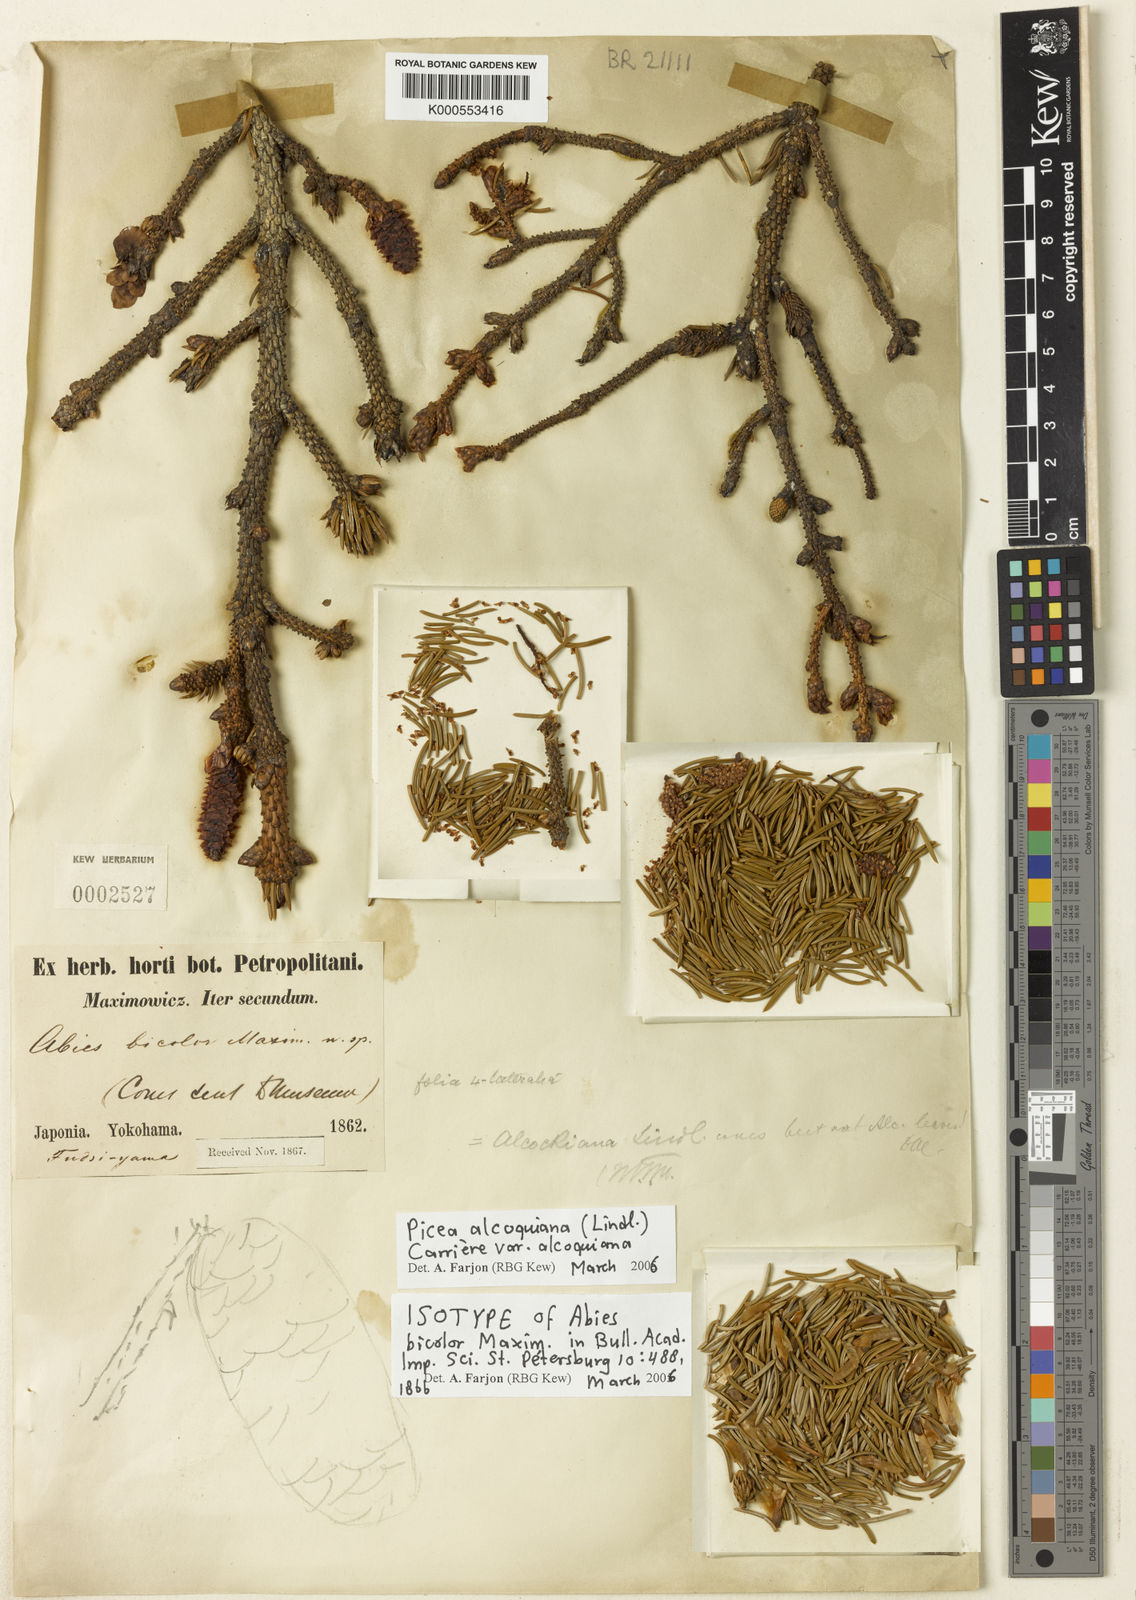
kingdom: Plantae
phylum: Tracheophyta
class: Pinopsida
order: Pinales
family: Pinaceae
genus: Picea
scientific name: Picea alcoquiana
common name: Alcock's spruce
